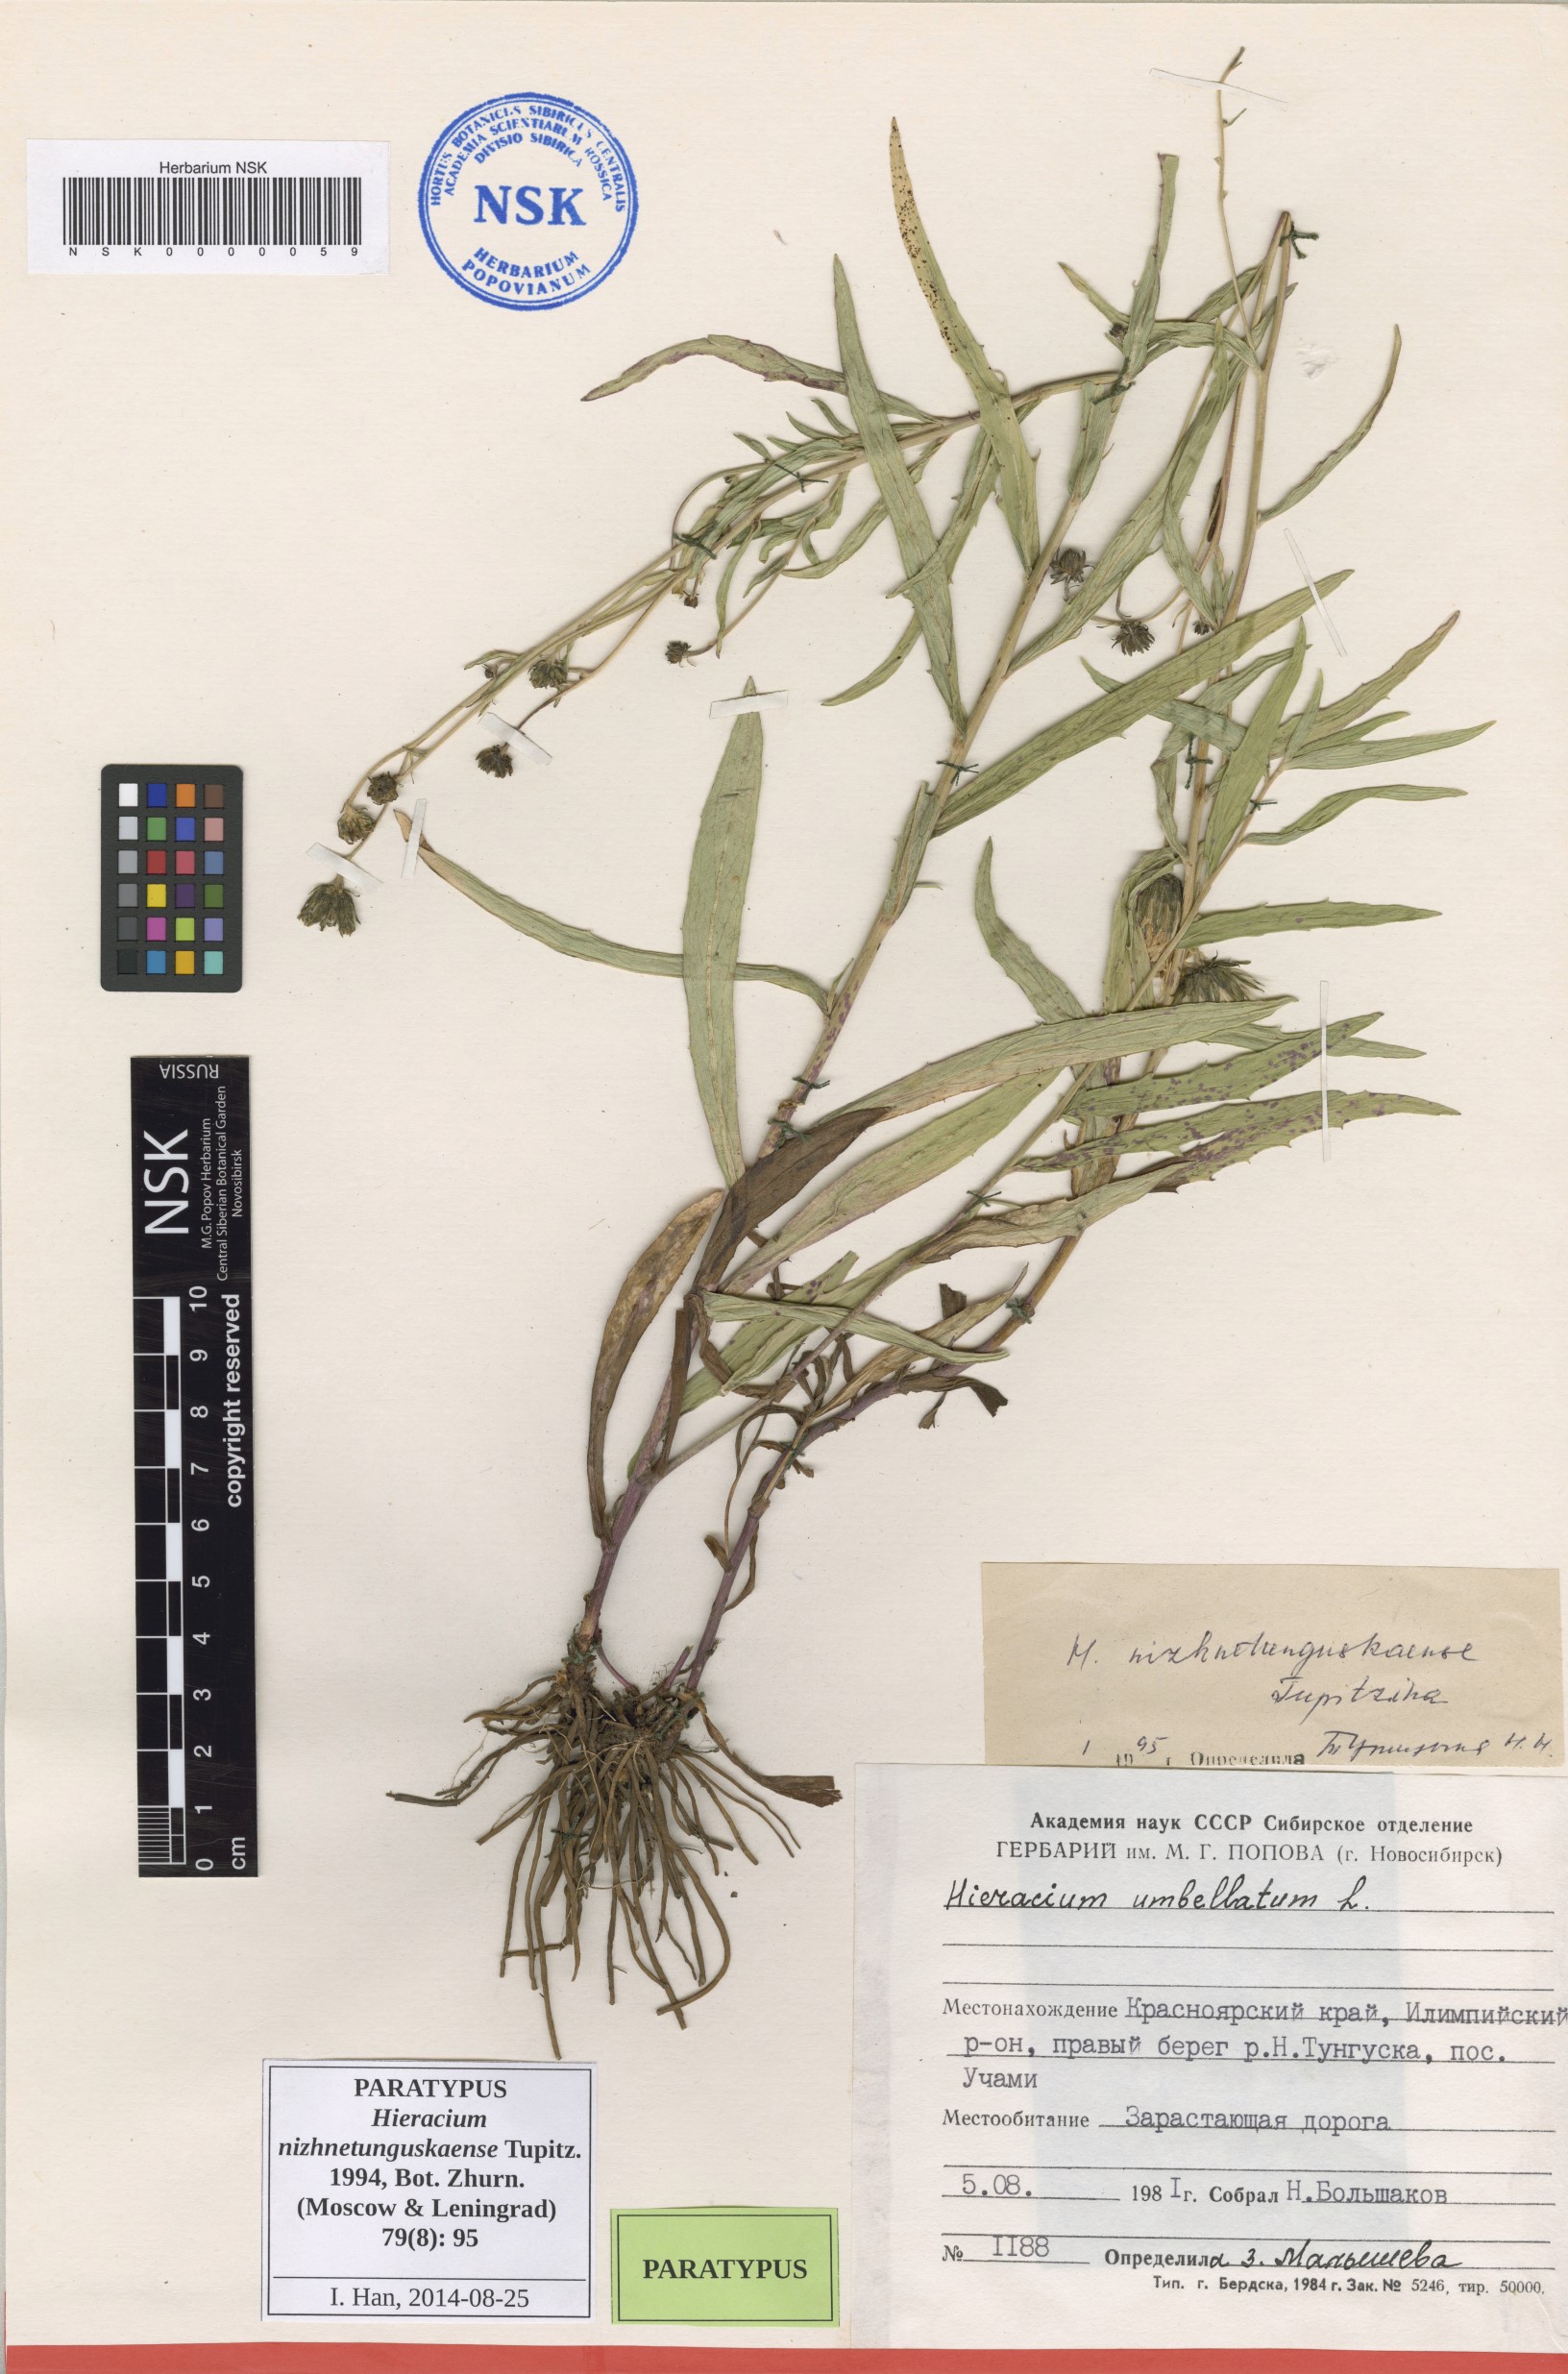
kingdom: Plantae
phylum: Tracheophyta
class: Magnoliopsida
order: Asterales
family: Asteraceae
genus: Hieracium
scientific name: Hieracium nizhnetunguskaense
